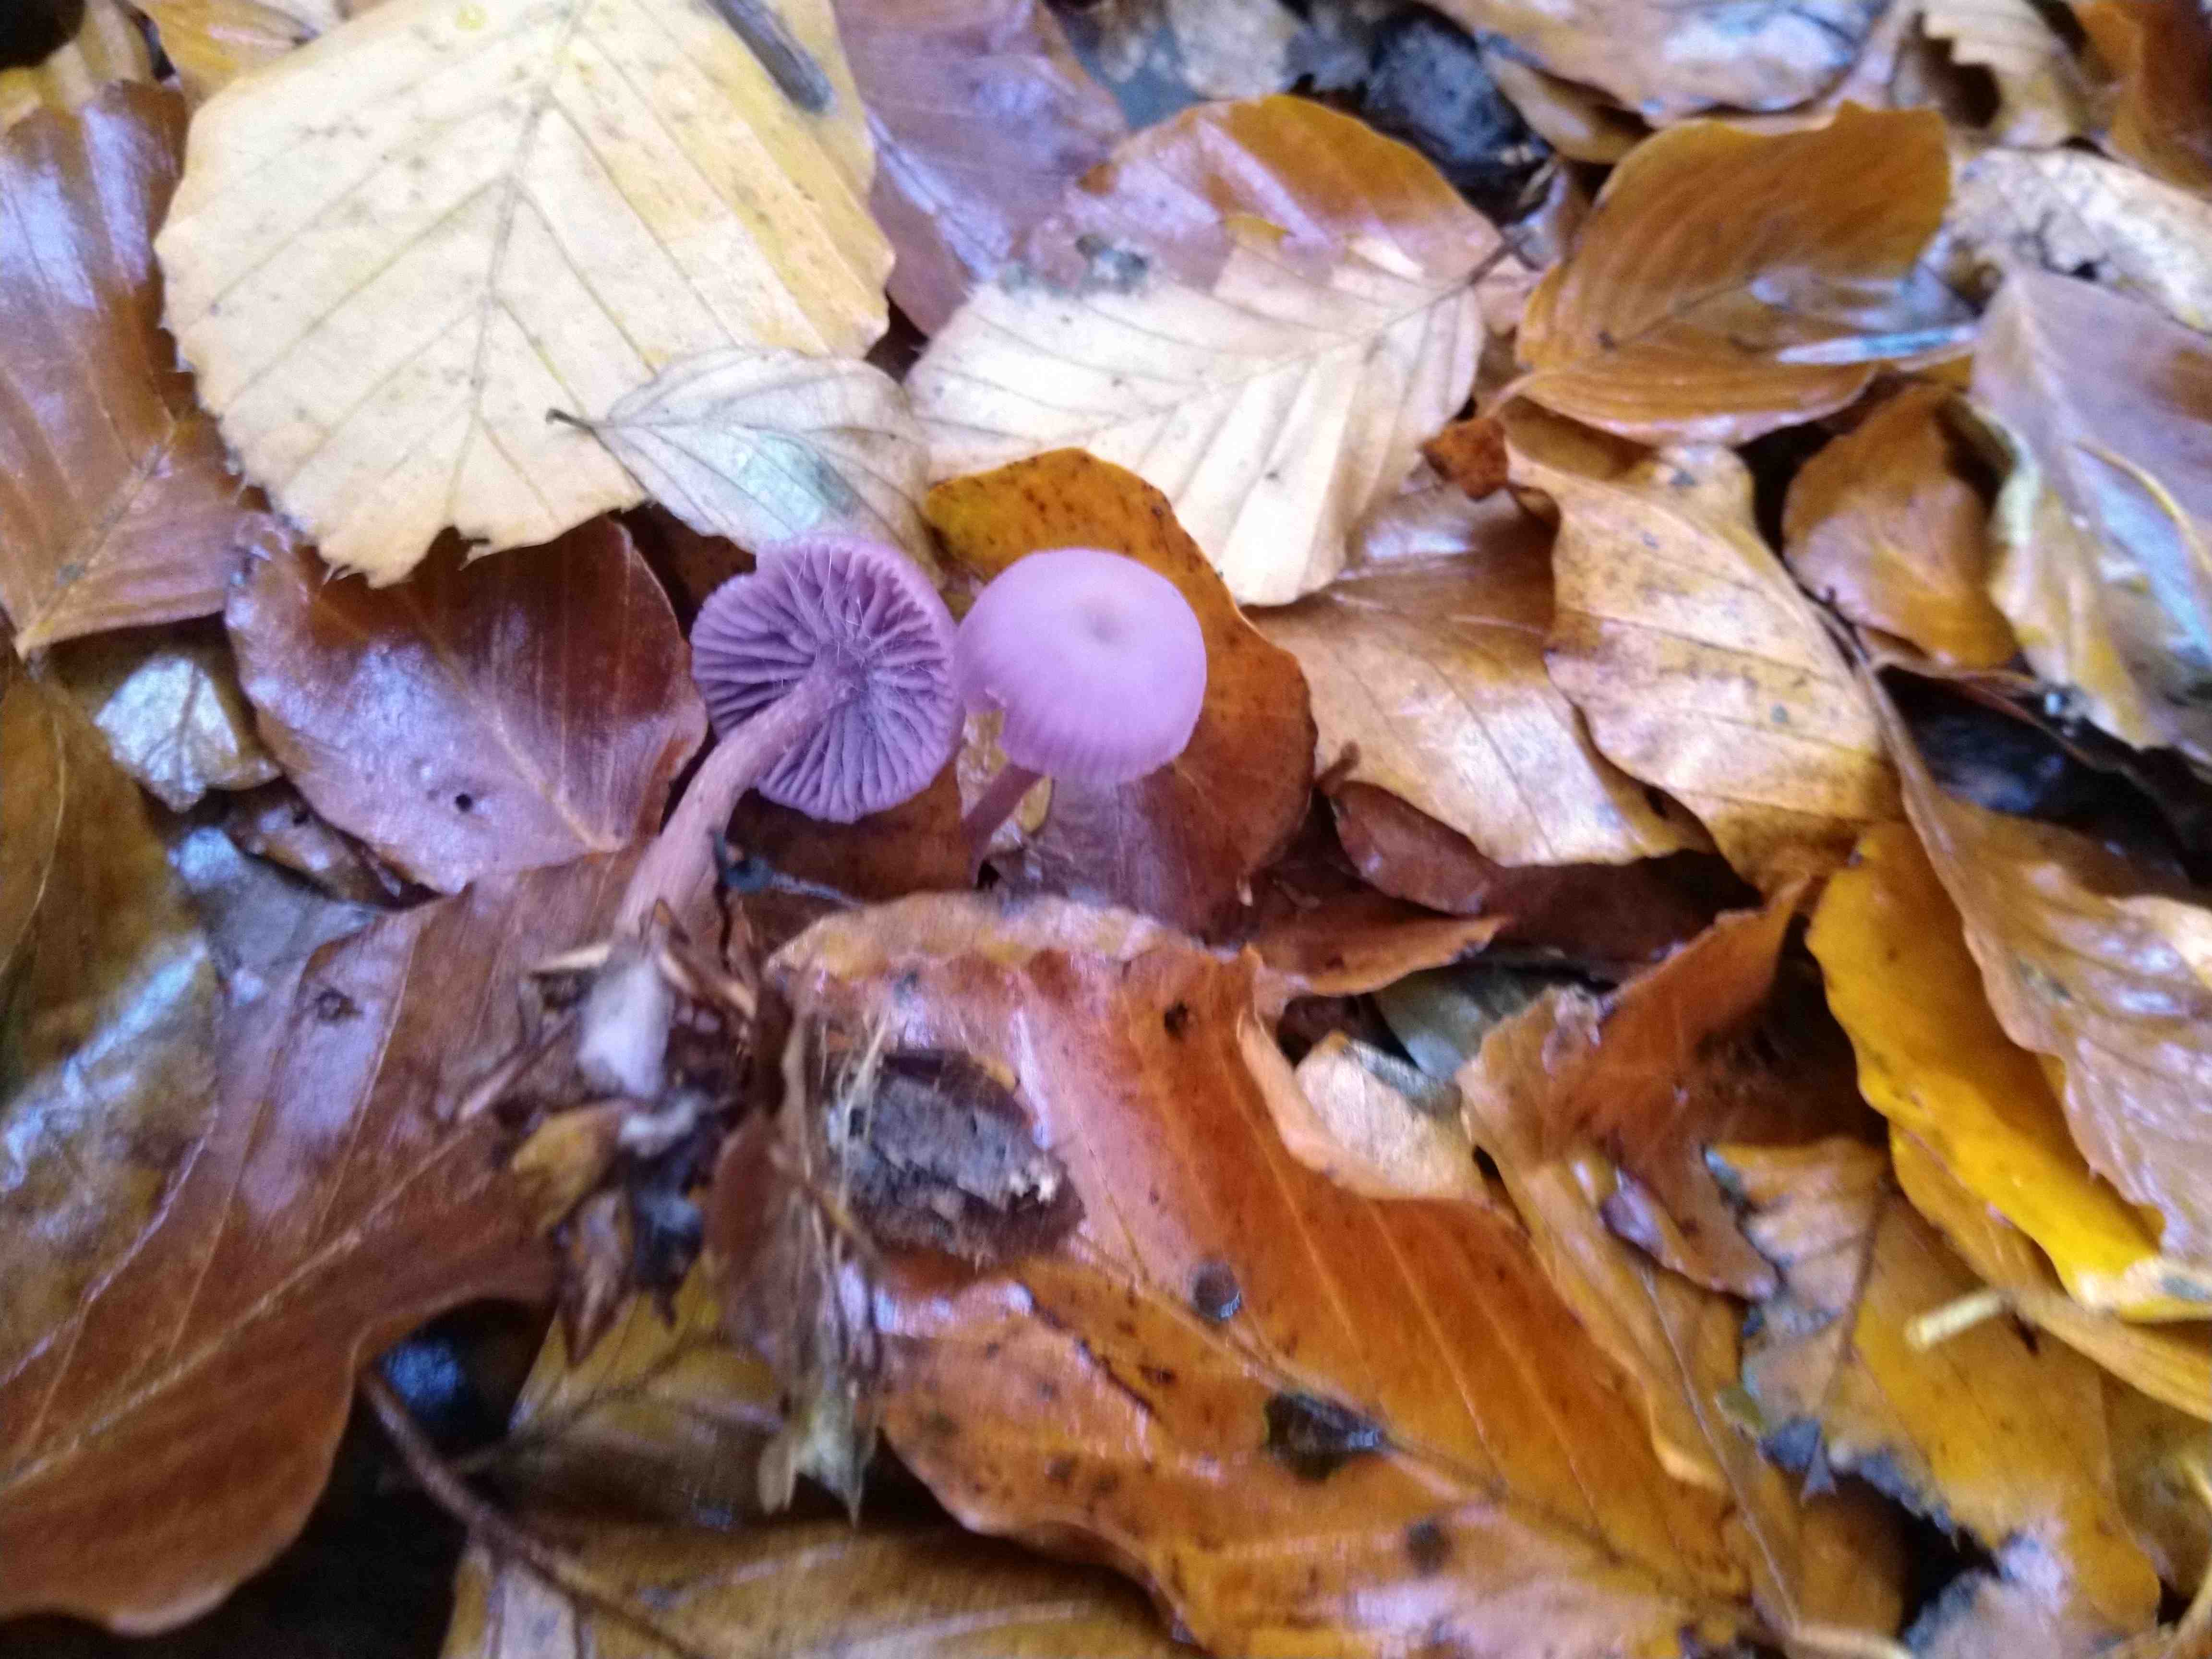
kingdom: Fungi
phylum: Basidiomycota
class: Agaricomycetes
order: Agaricales
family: Hydnangiaceae
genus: Laccaria
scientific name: Laccaria amethystina
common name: violet ametysthat
